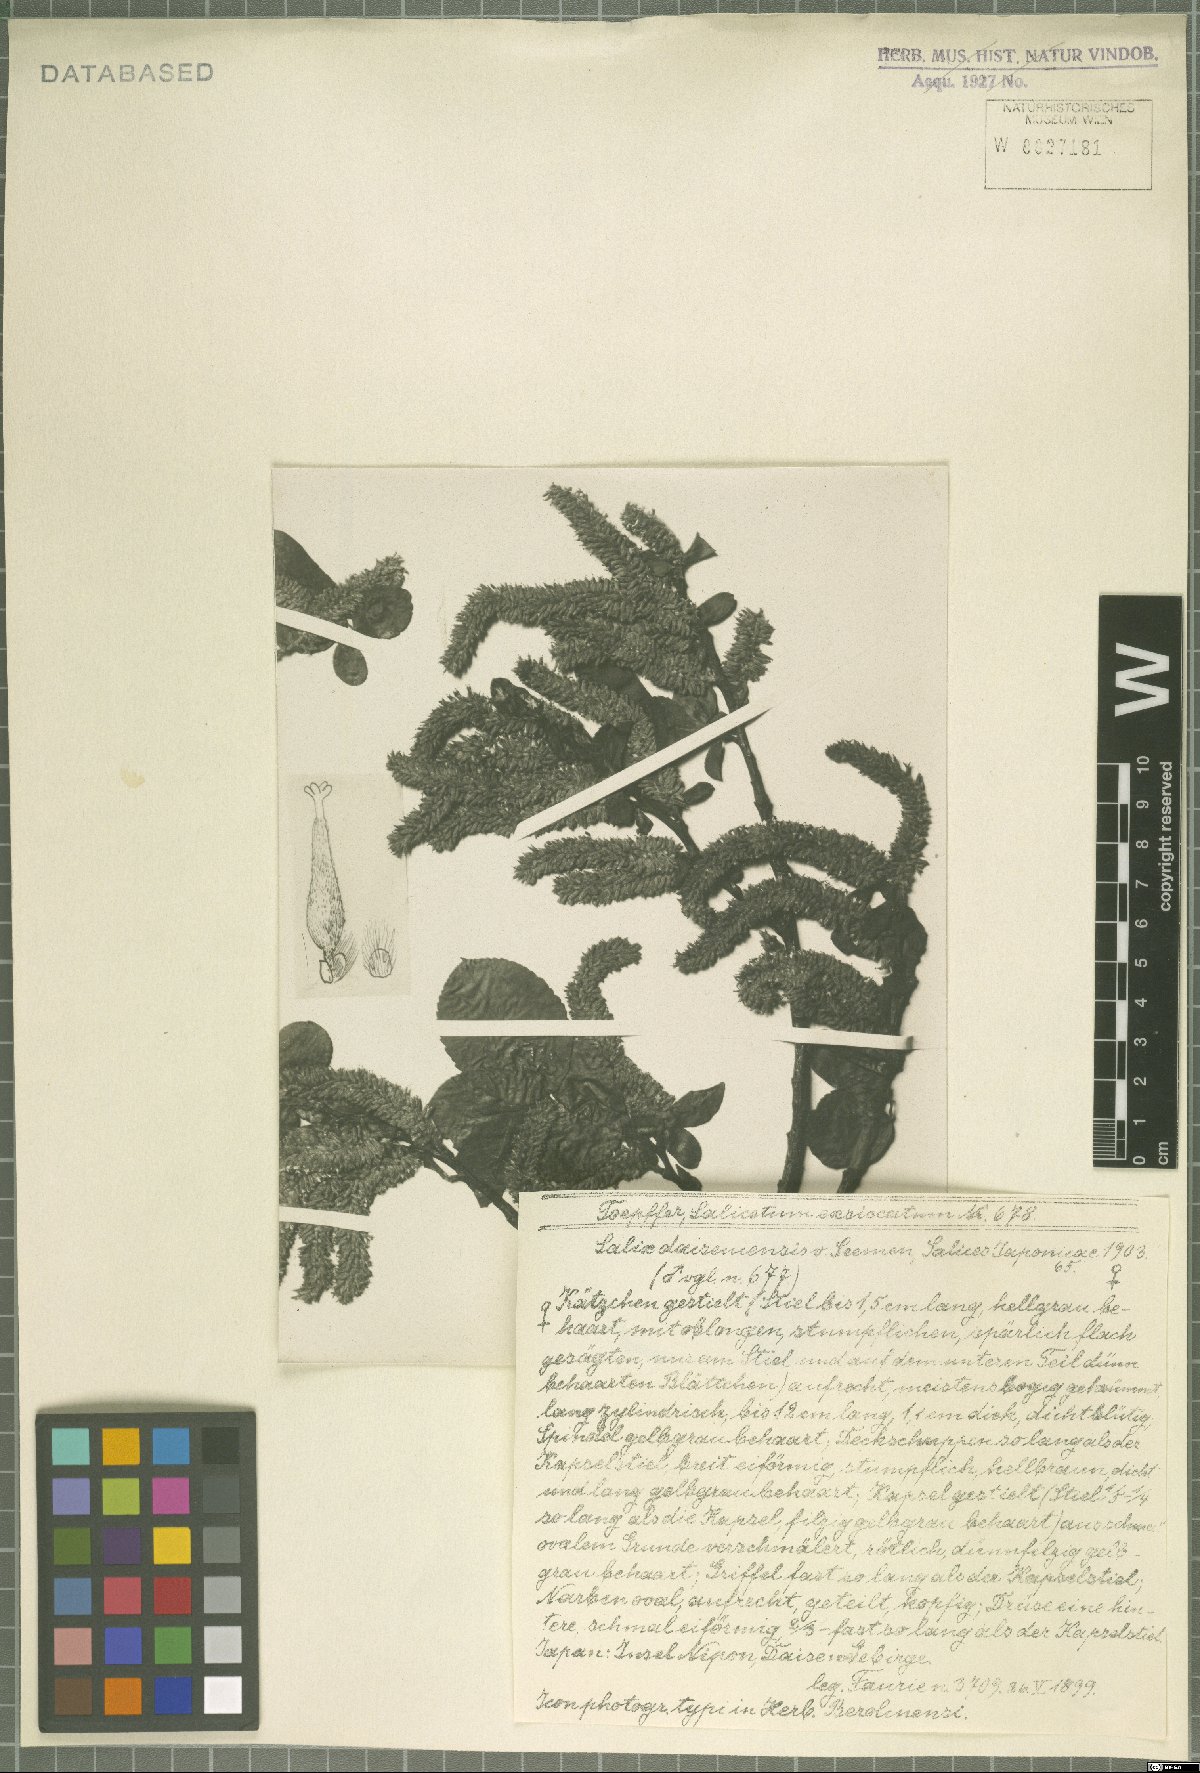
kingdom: Plantae
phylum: Tracheophyta
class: Magnoliopsida
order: Malpighiales
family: Salicaceae
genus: Salix
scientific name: Salix sieboldiana
